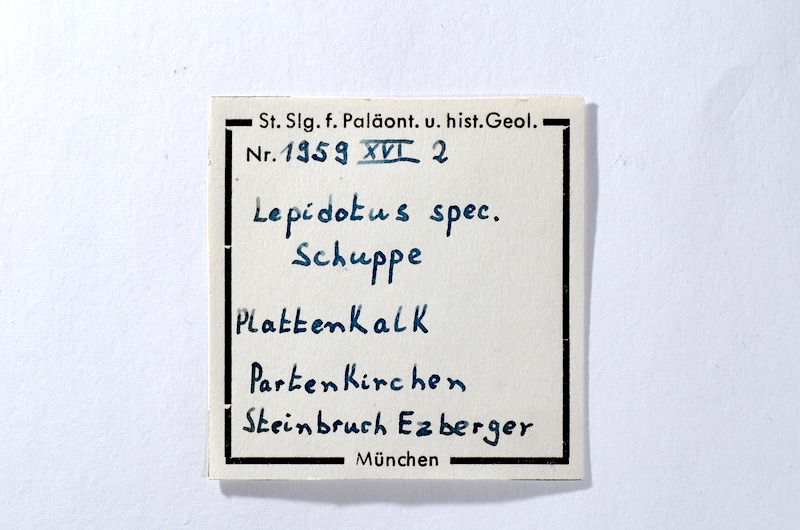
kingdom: Animalia
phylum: Chordata
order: Lepisosteiformes
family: Lepidotidae
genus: Lepidotes
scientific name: Lepidotes
